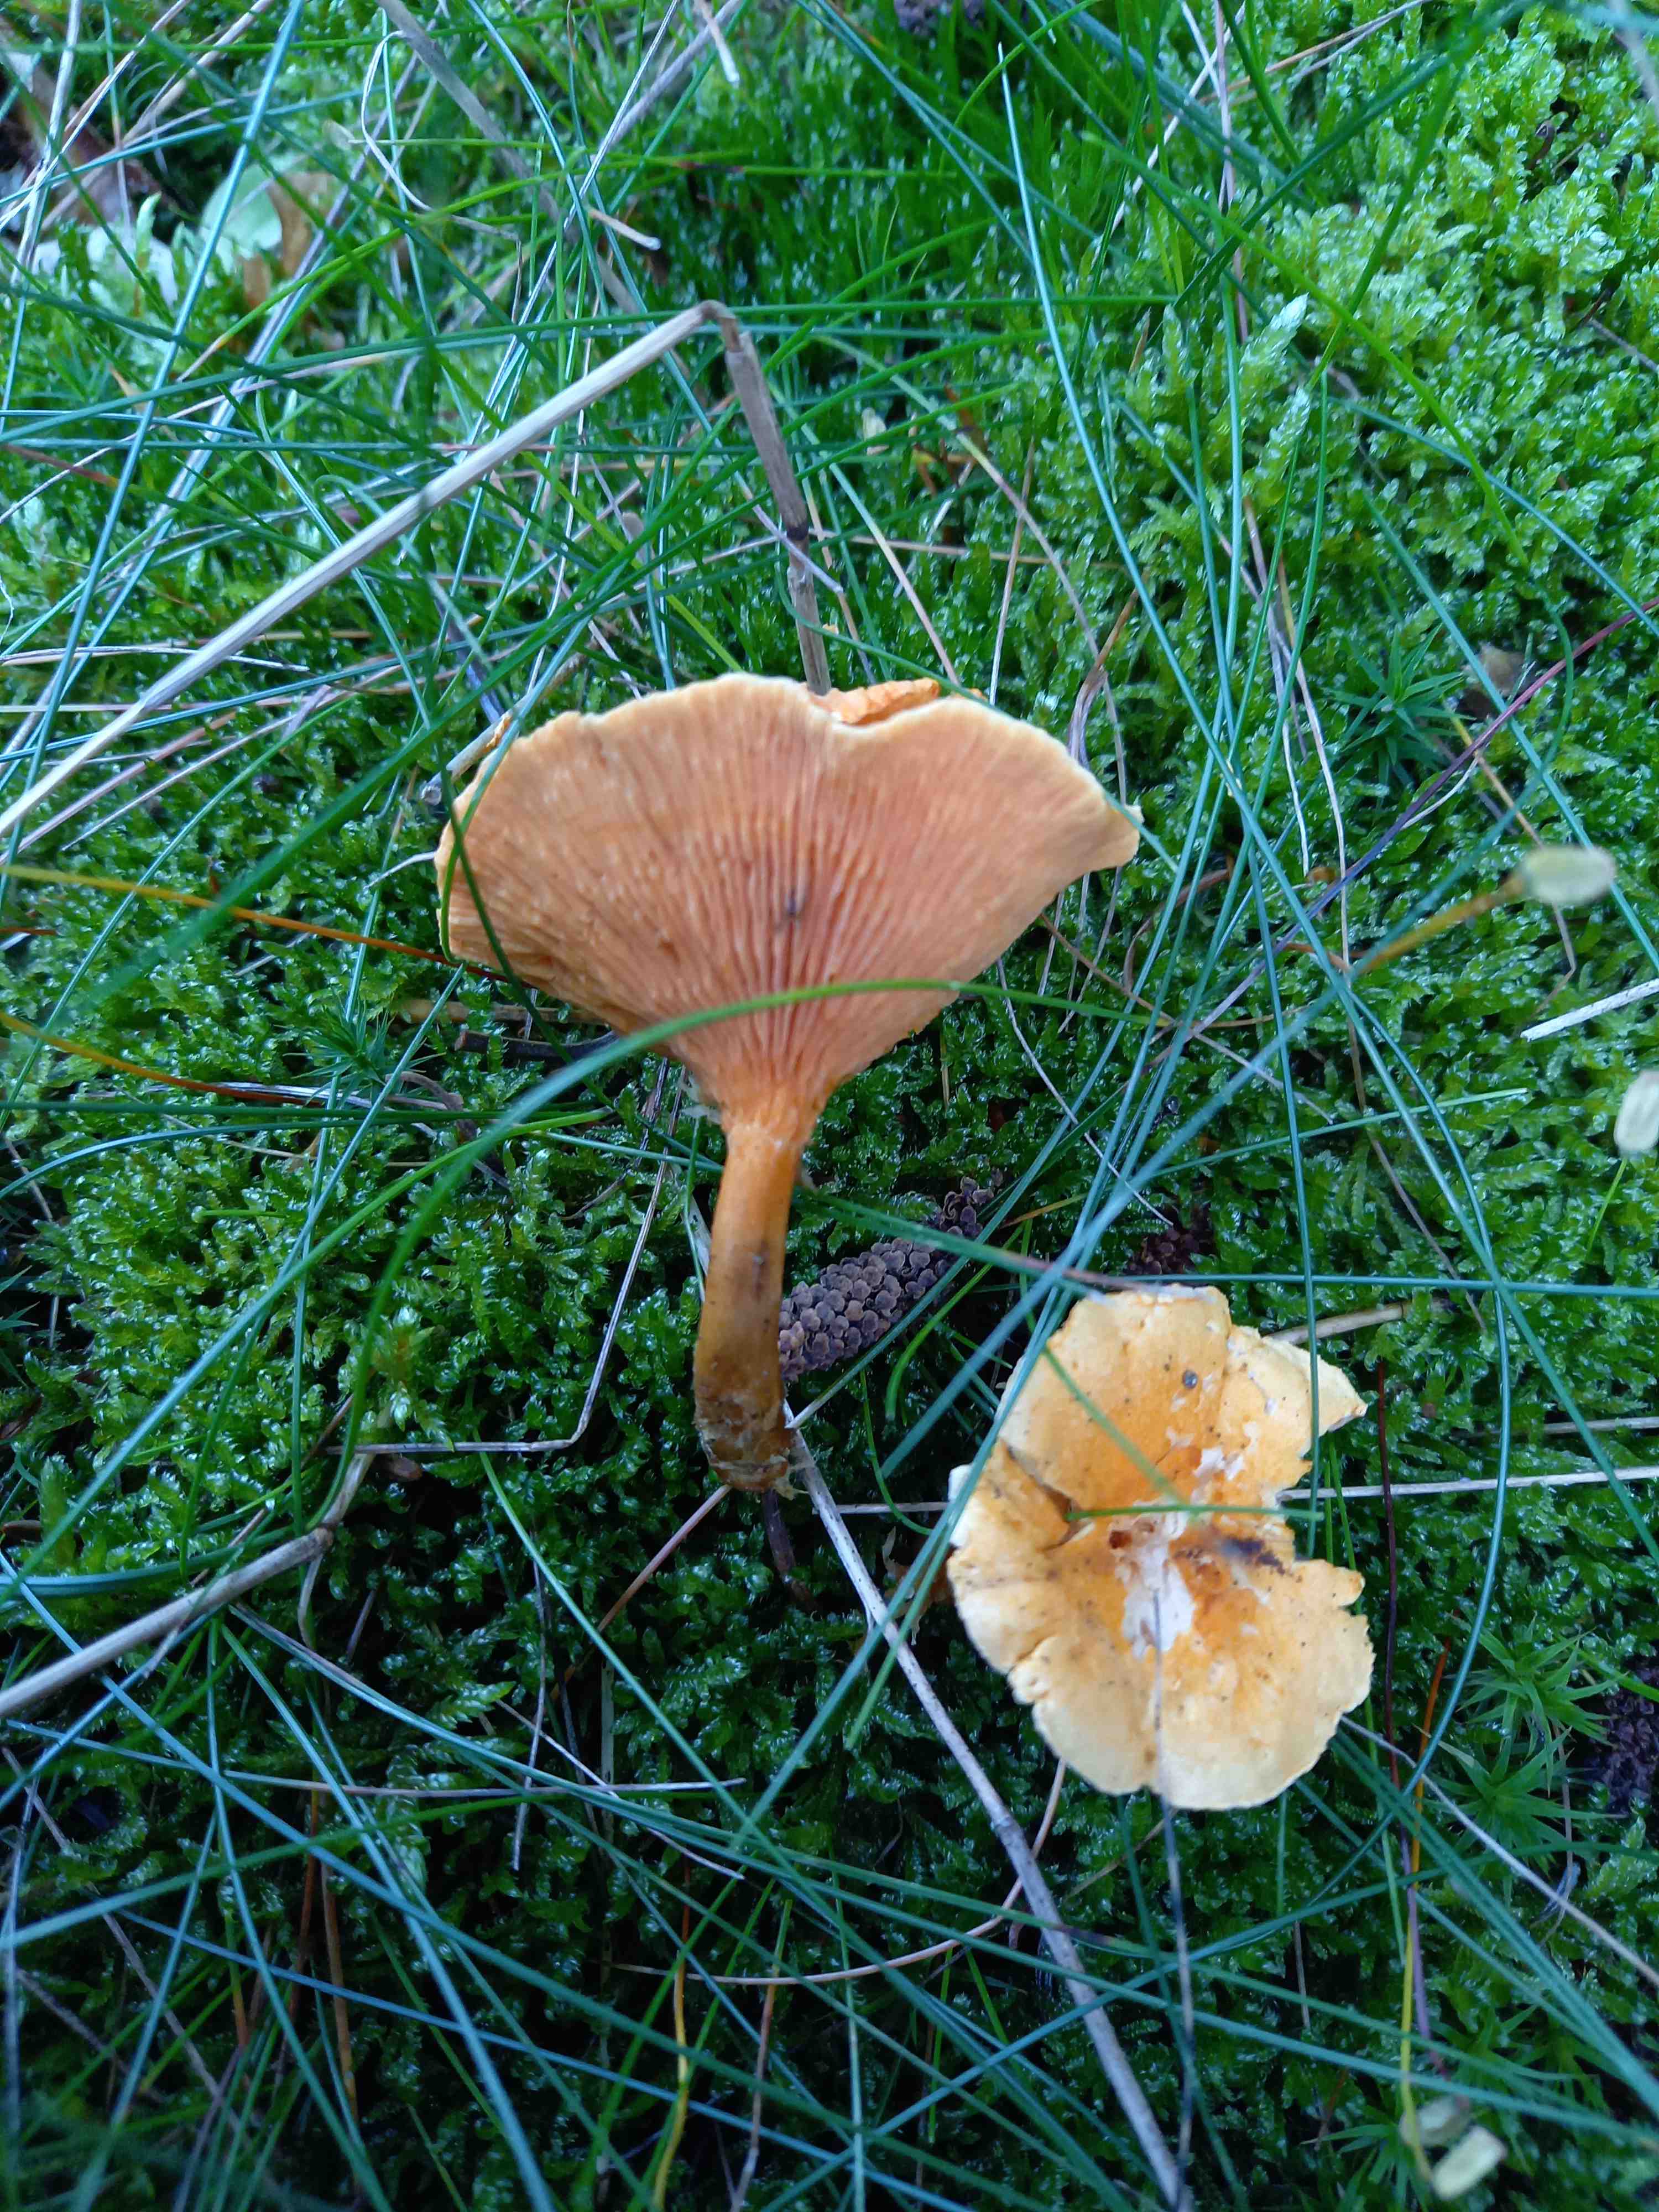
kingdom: Fungi
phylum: Basidiomycota
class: Agaricomycetes
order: Boletales
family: Hygrophoropsidaceae
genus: Hygrophoropsis
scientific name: Hygrophoropsis aurantiaca
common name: almindelig orangekantarel
